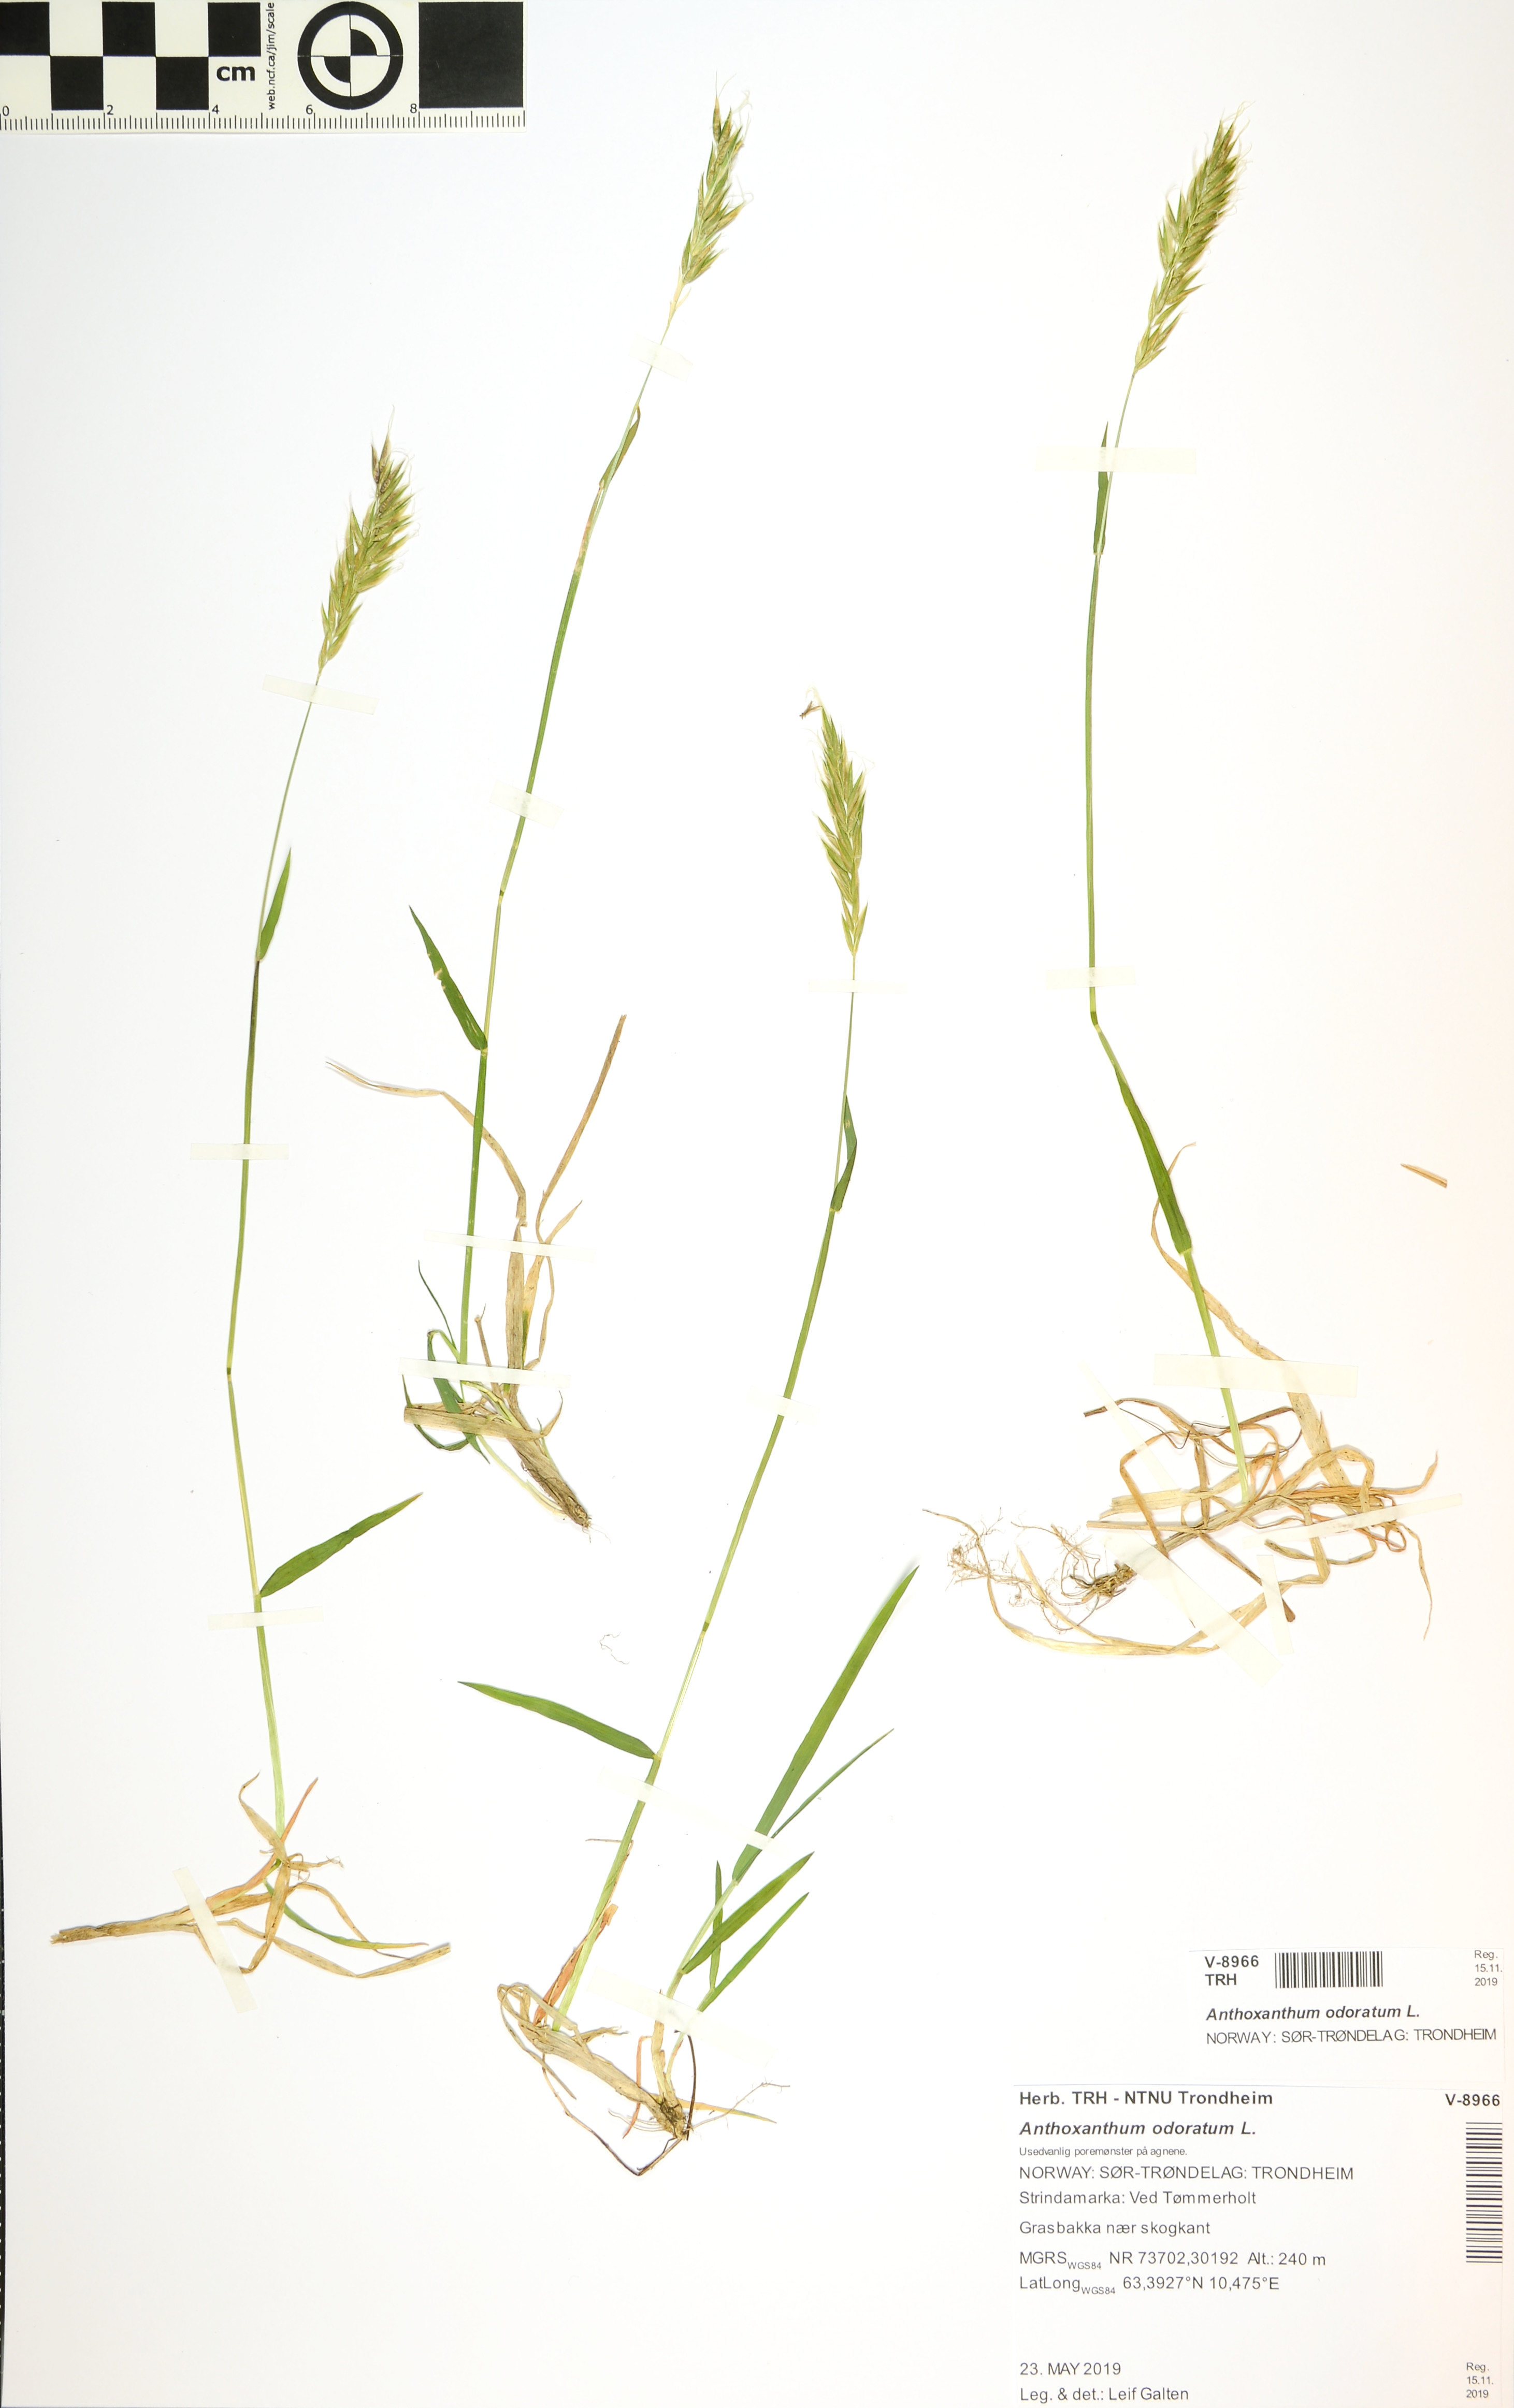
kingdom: Plantae
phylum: Tracheophyta
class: Liliopsida
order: Poales
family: Poaceae
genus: Anthoxanthum
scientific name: Anthoxanthum odoratum
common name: Sweet vernalgrass
